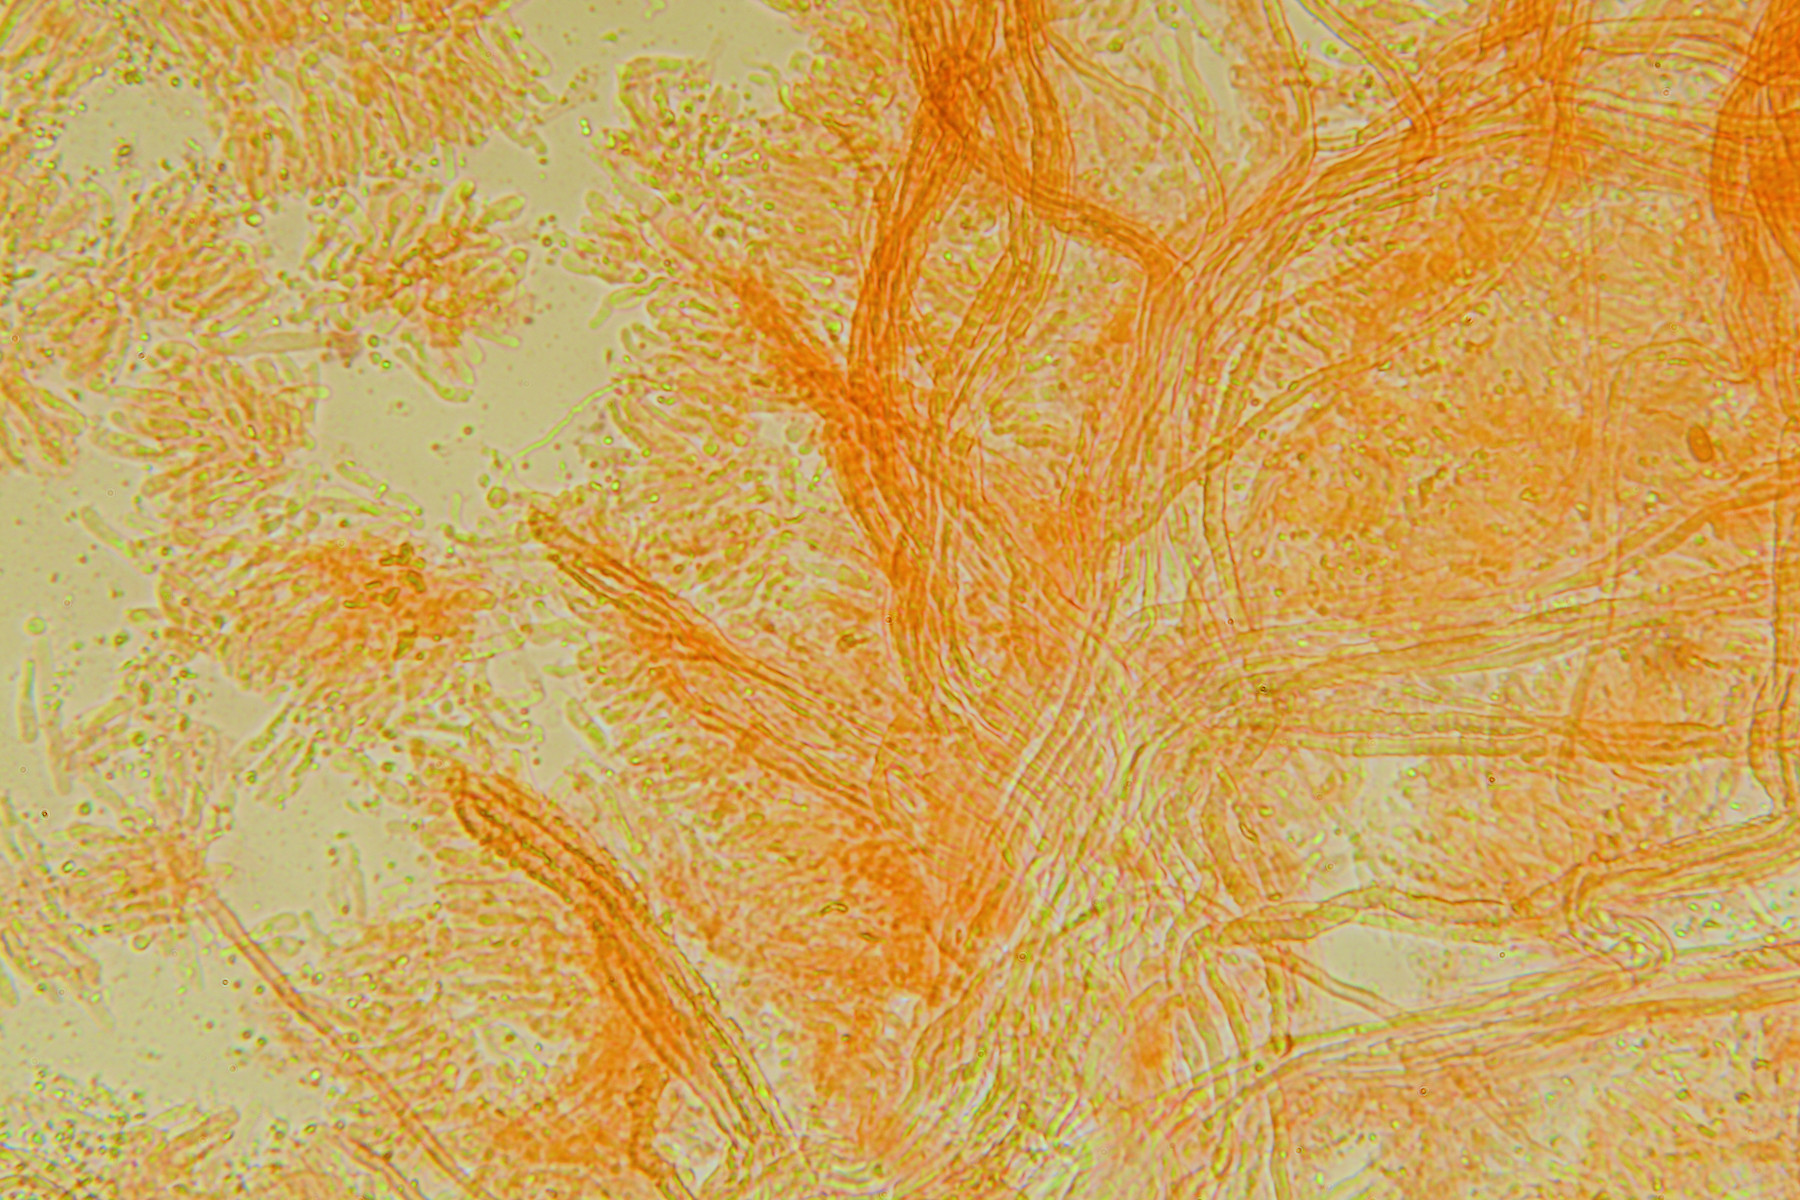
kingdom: Fungi
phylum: Basidiomycota
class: Agaricomycetes
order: Polyporales
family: Meruliaceae
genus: Mycoaciella
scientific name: Mycoaciella bispora
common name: stalaktit-vokspig
